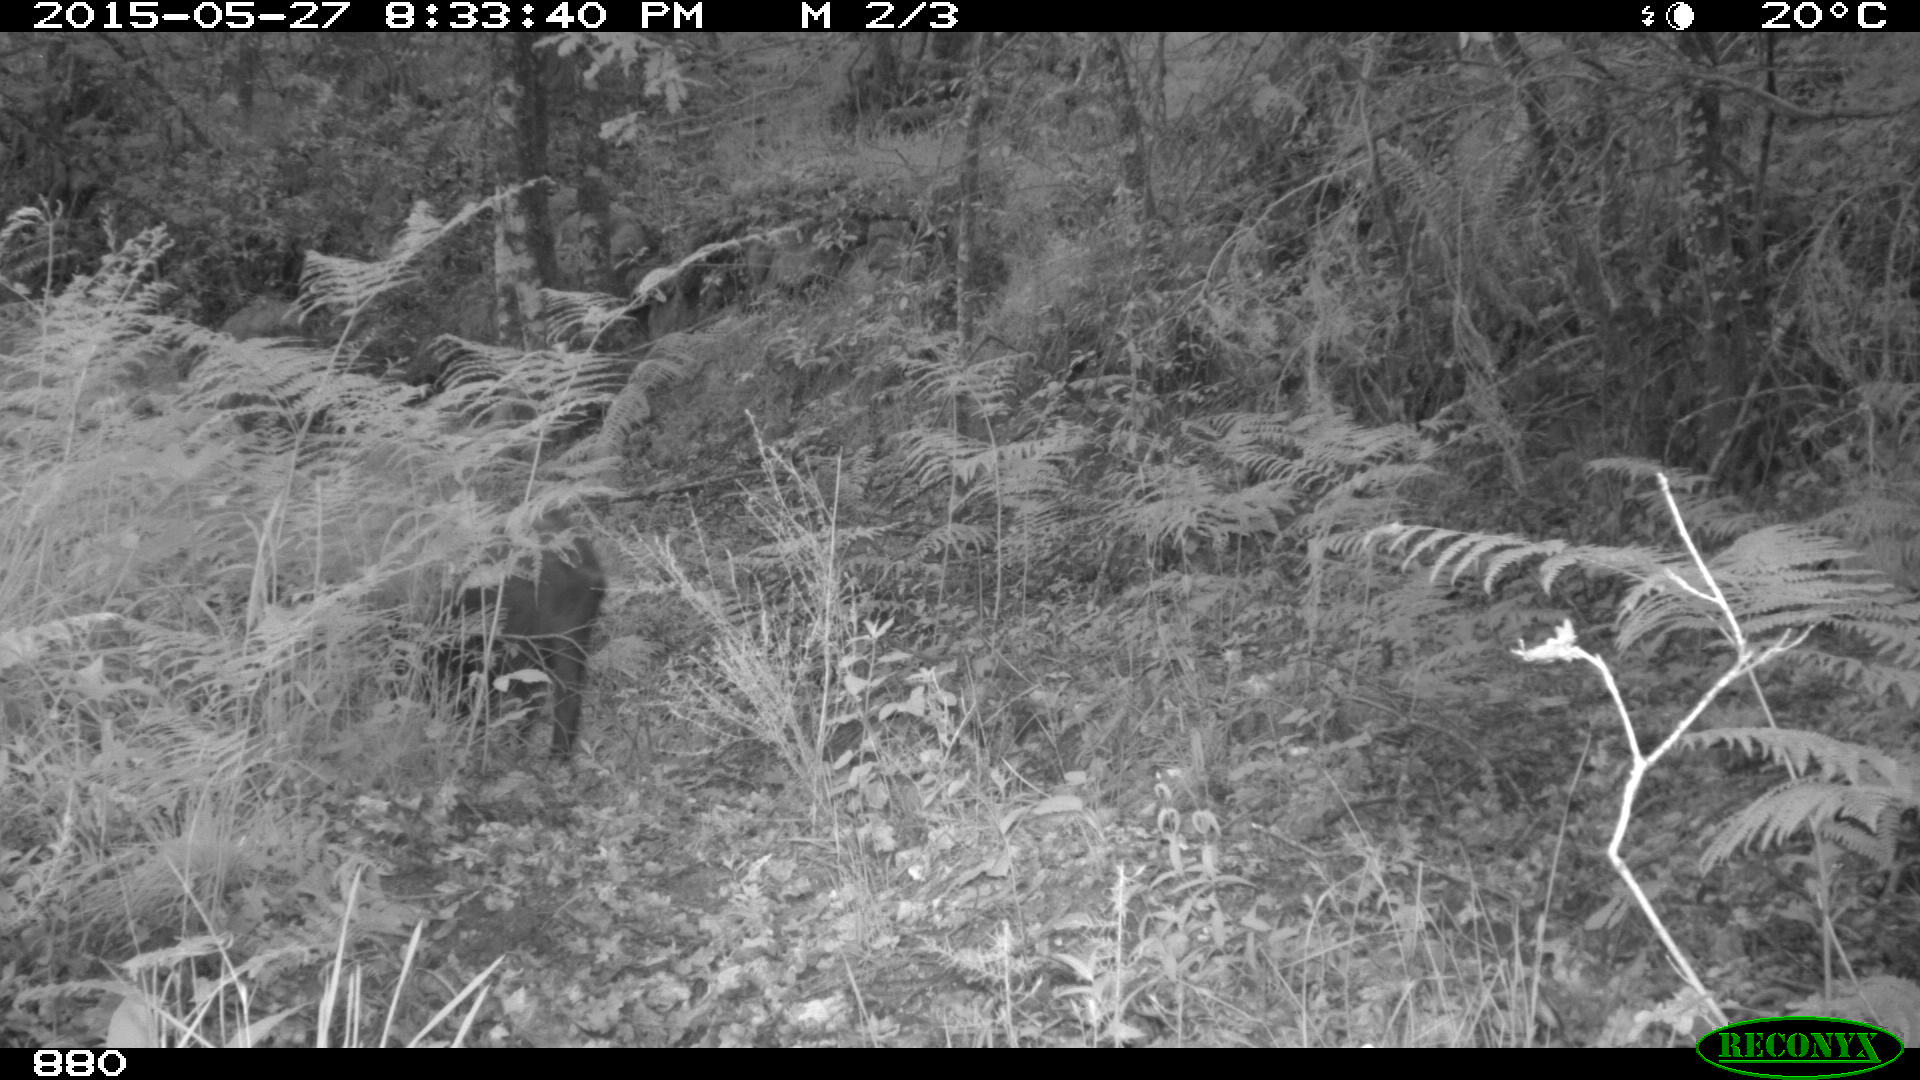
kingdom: Animalia
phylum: Chordata
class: Mammalia
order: Artiodactyla
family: Suidae
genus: Sus
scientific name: Sus scrofa
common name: Wild boar
